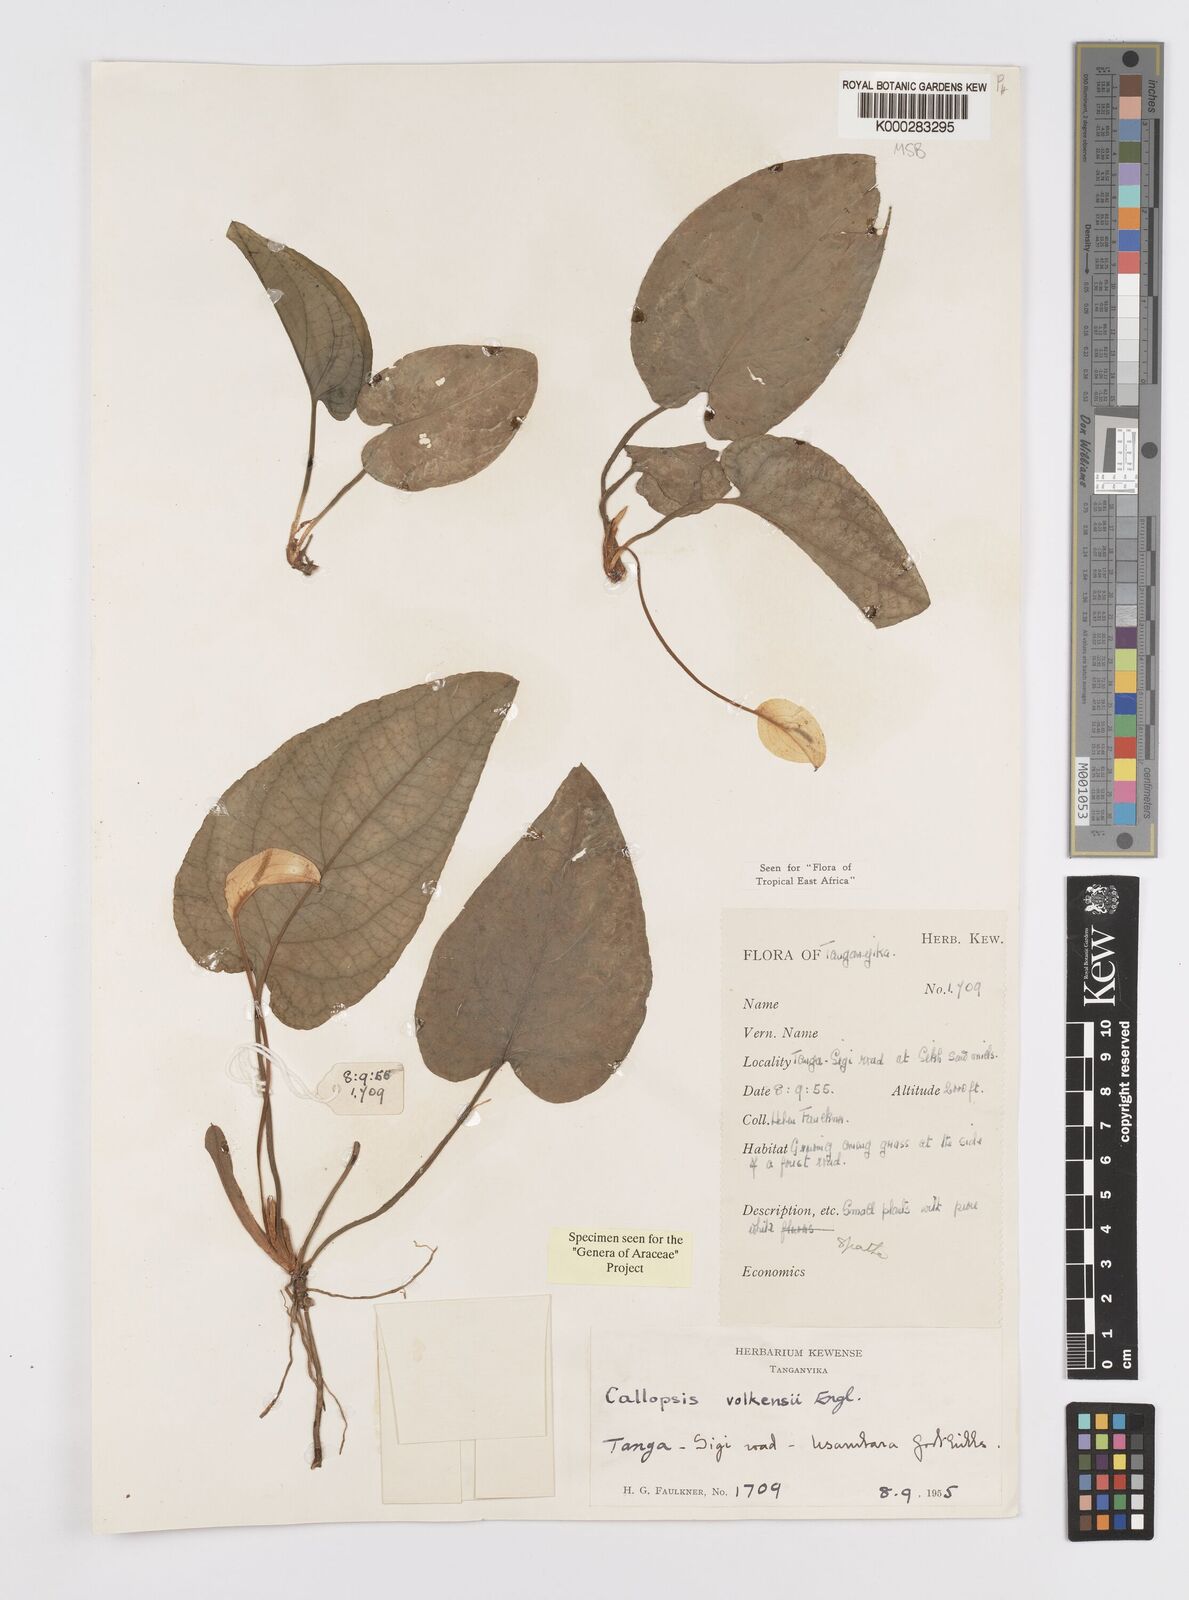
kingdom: Plantae
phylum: Tracheophyta
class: Liliopsida
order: Alismatales
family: Araceae
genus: Callopsis
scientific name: Callopsis volkensii
